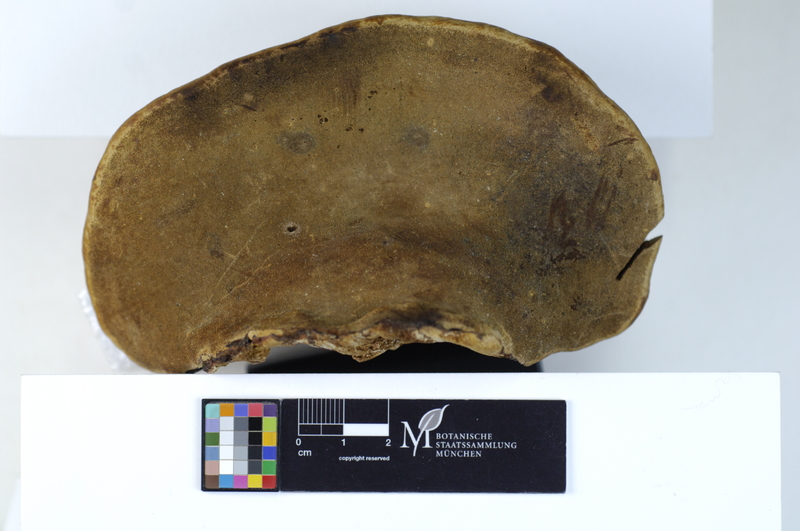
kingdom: Fungi
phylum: Basidiomycota
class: Agaricomycetes
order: Hymenochaetales
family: Hymenochaetaceae
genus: Phellinus
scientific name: Phellinus igniarius
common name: Willow bracket
